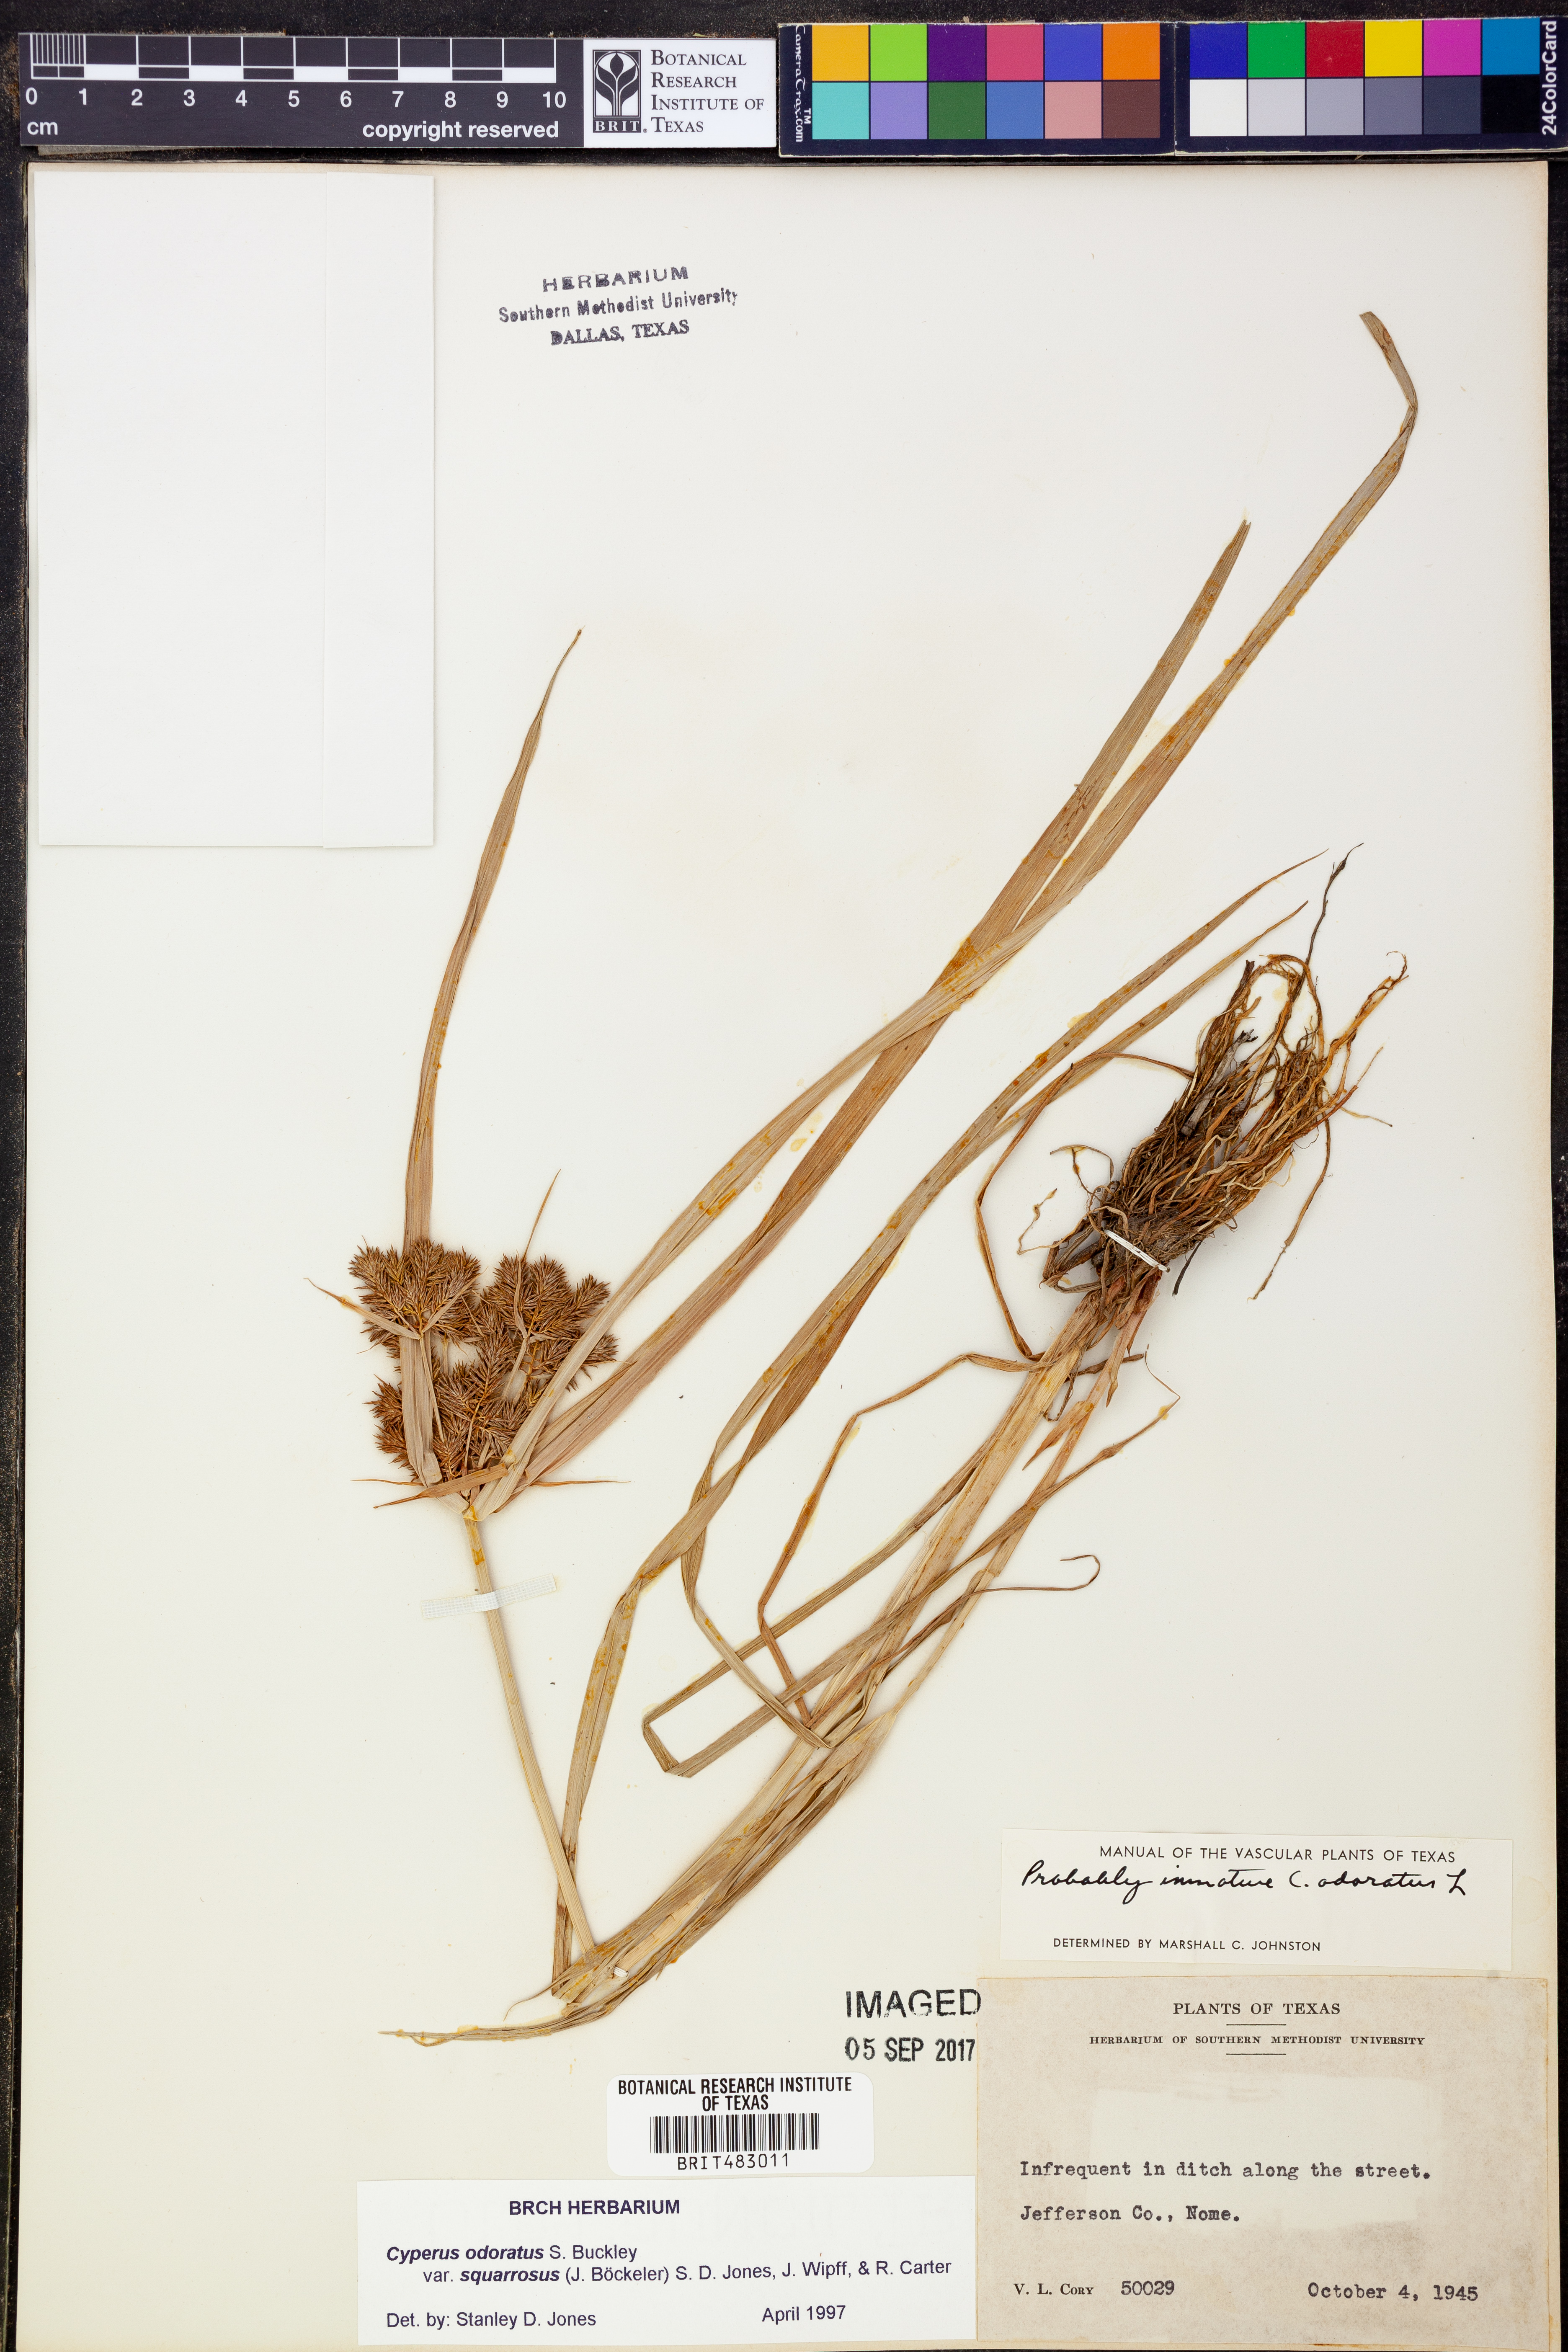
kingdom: Plantae
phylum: Tracheophyta
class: Liliopsida
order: Poales
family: Cyperaceae
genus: Cyperus
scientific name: Cyperus odoratus
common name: Fragrant flatsedge
